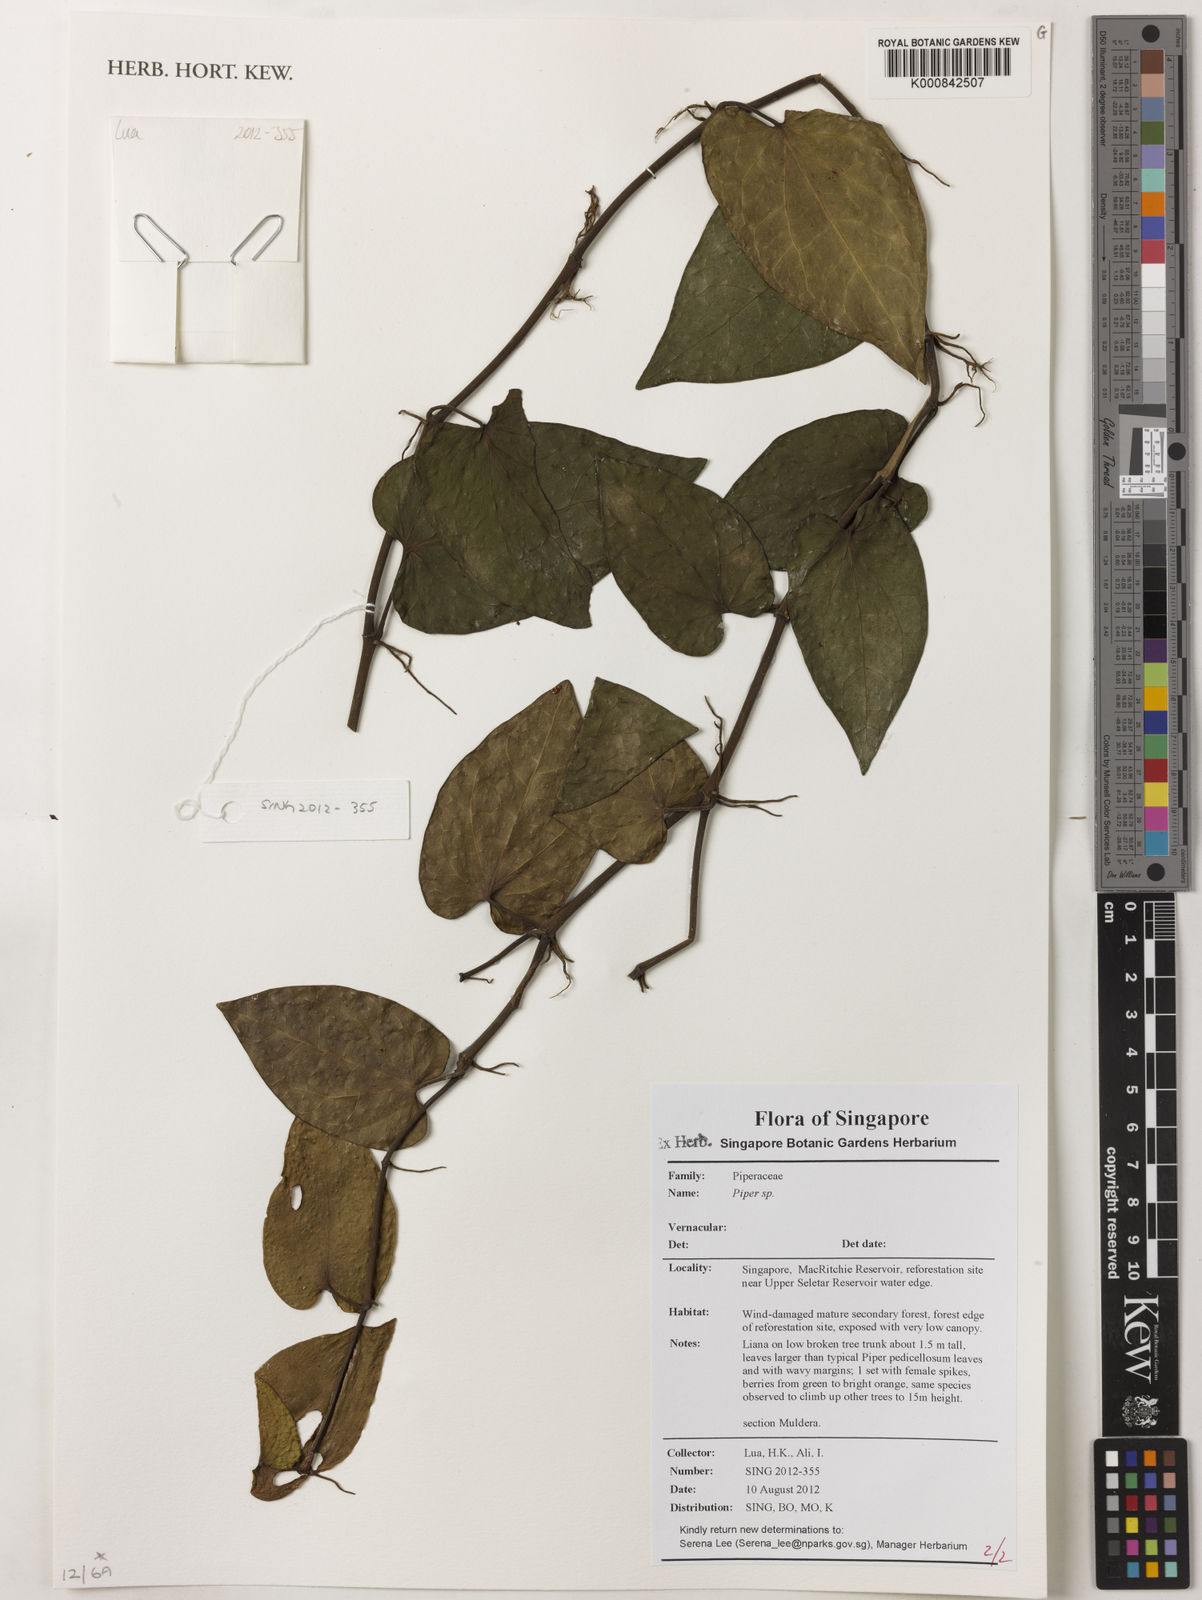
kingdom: Plantae
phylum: Tracheophyta
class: Magnoliopsida
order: Piperales
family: Piperaceae
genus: Piper
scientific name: Piper
